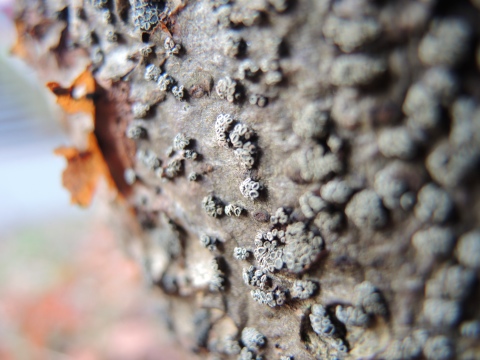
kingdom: Fungi
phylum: Ascomycota
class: Leotiomycetes
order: Leotiales
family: Tympanidaceae
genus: Tympanis
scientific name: Tympanis alnea
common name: almindelig knippeskive
